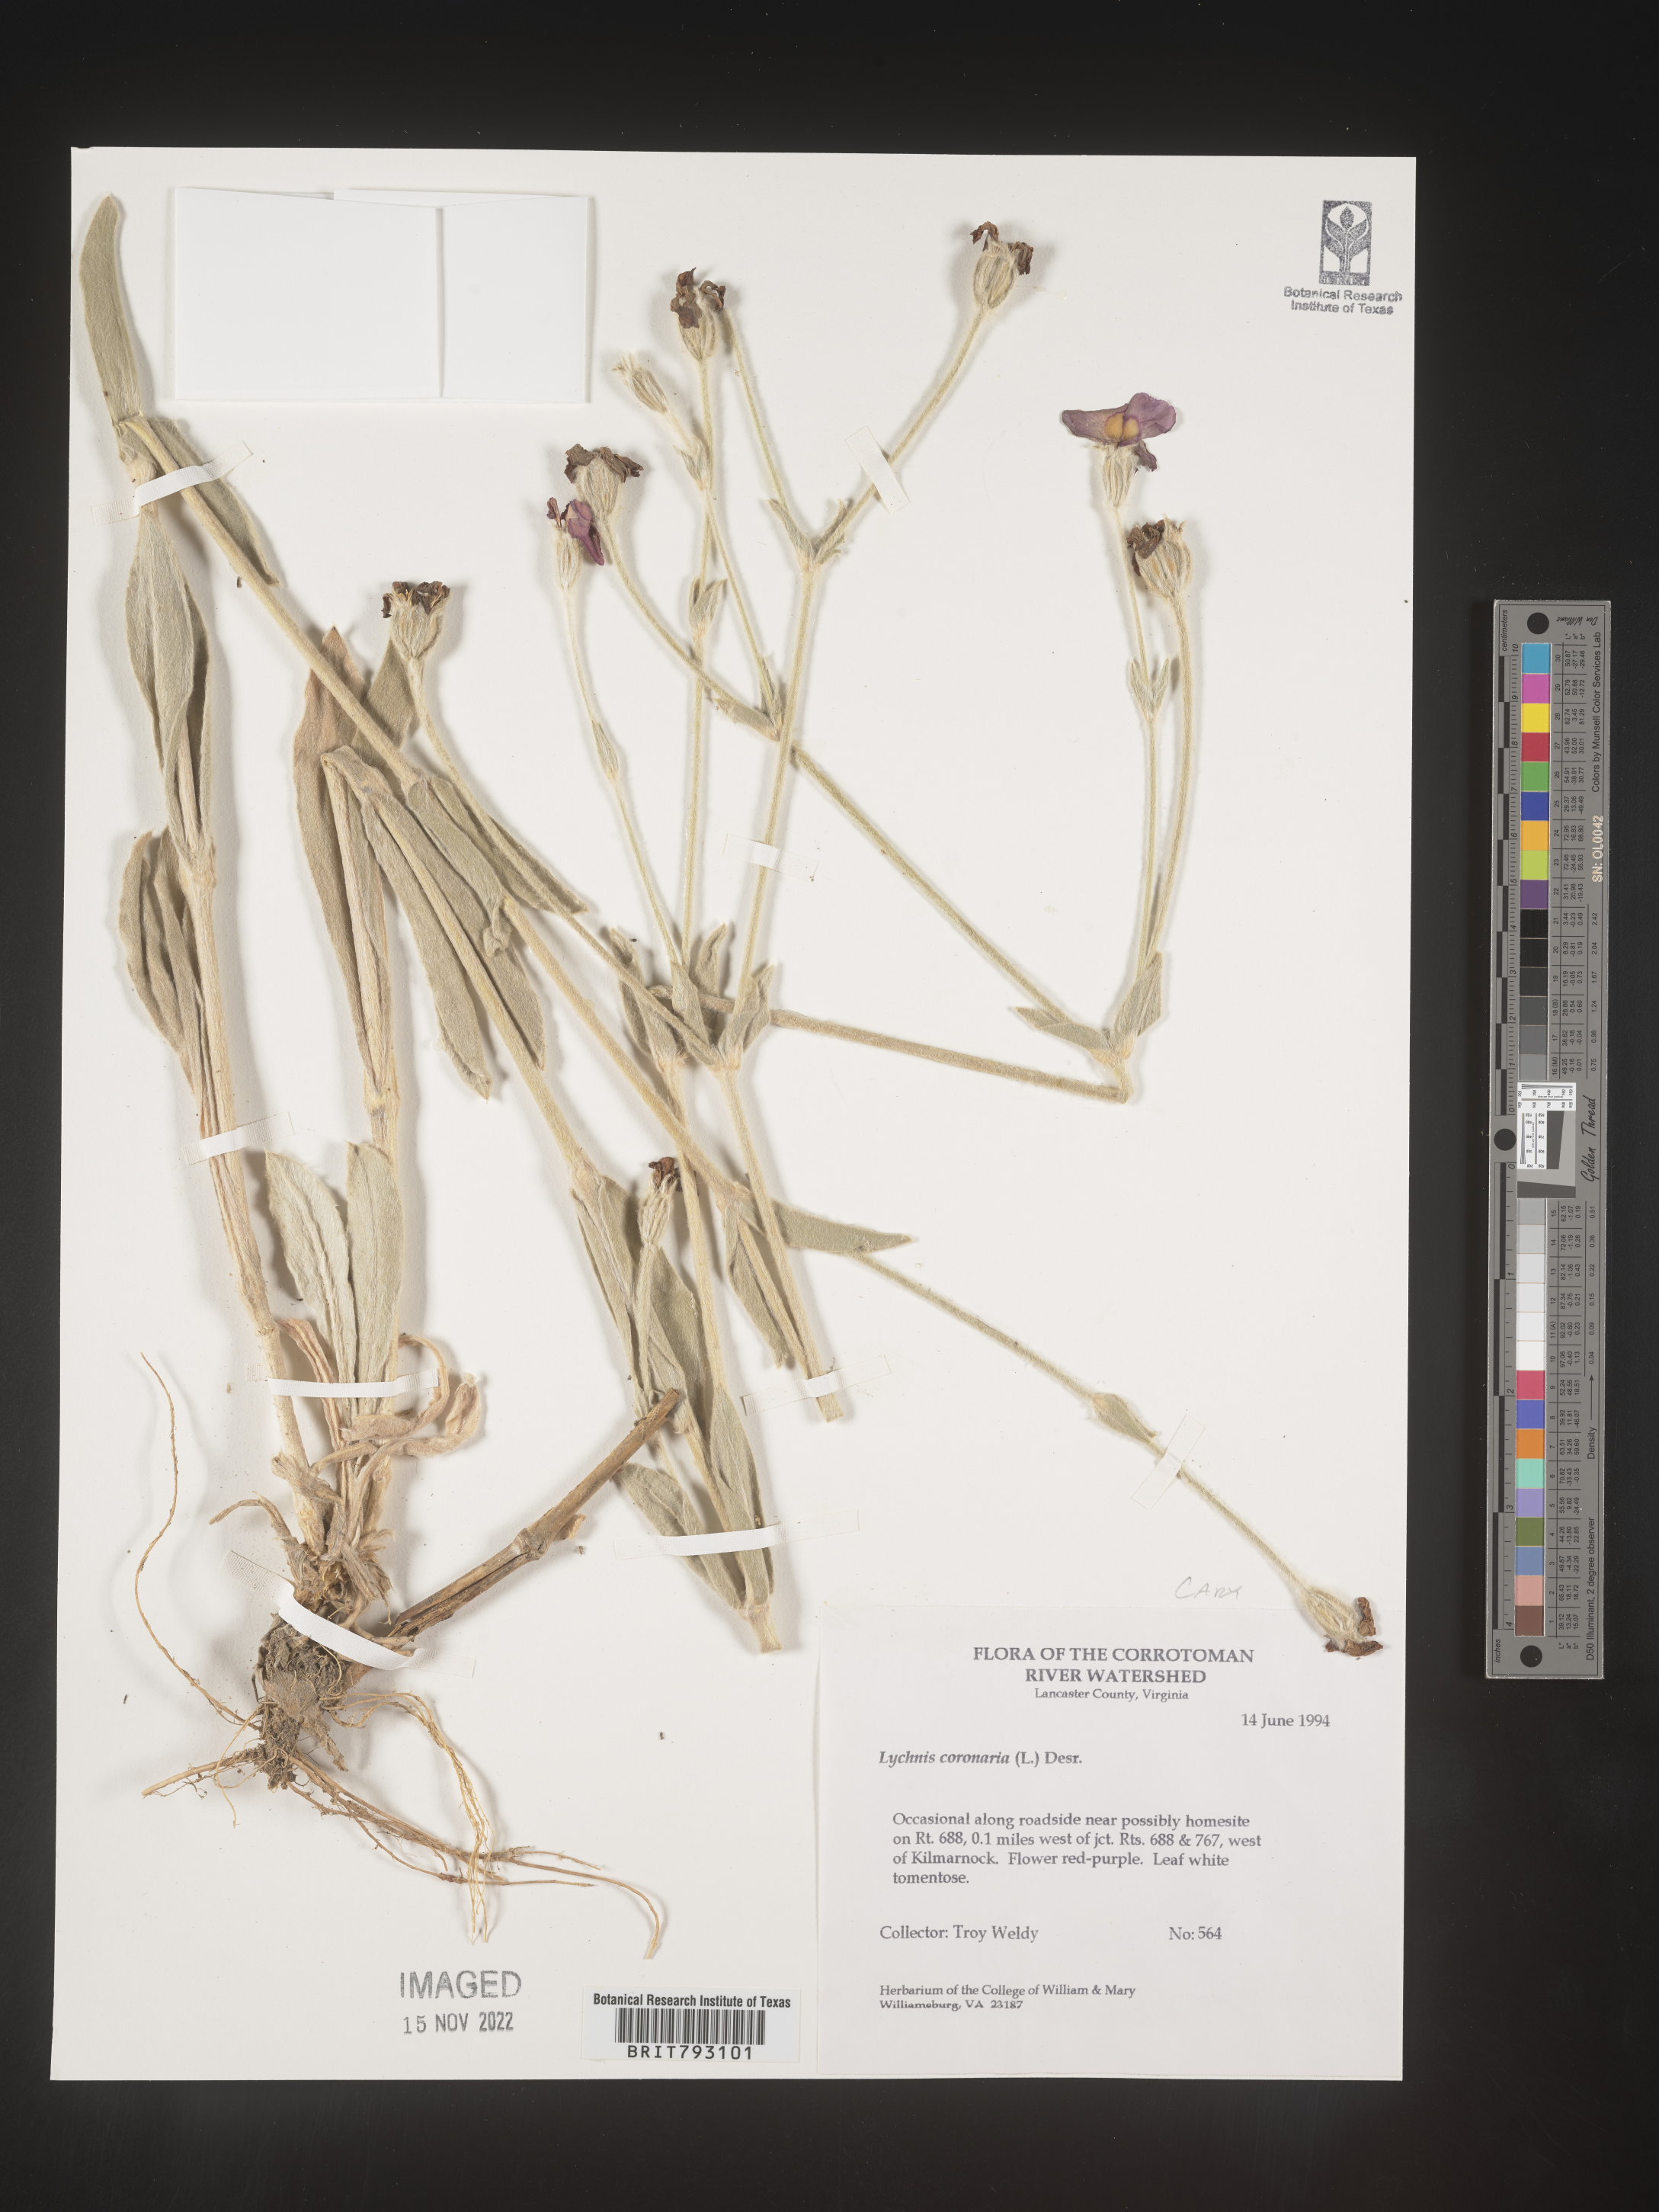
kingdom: Plantae
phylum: Tracheophyta
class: Magnoliopsida
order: Caryophyllales
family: Caryophyllaceae
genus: Silene
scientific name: Silene coronaria
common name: Rose campion
